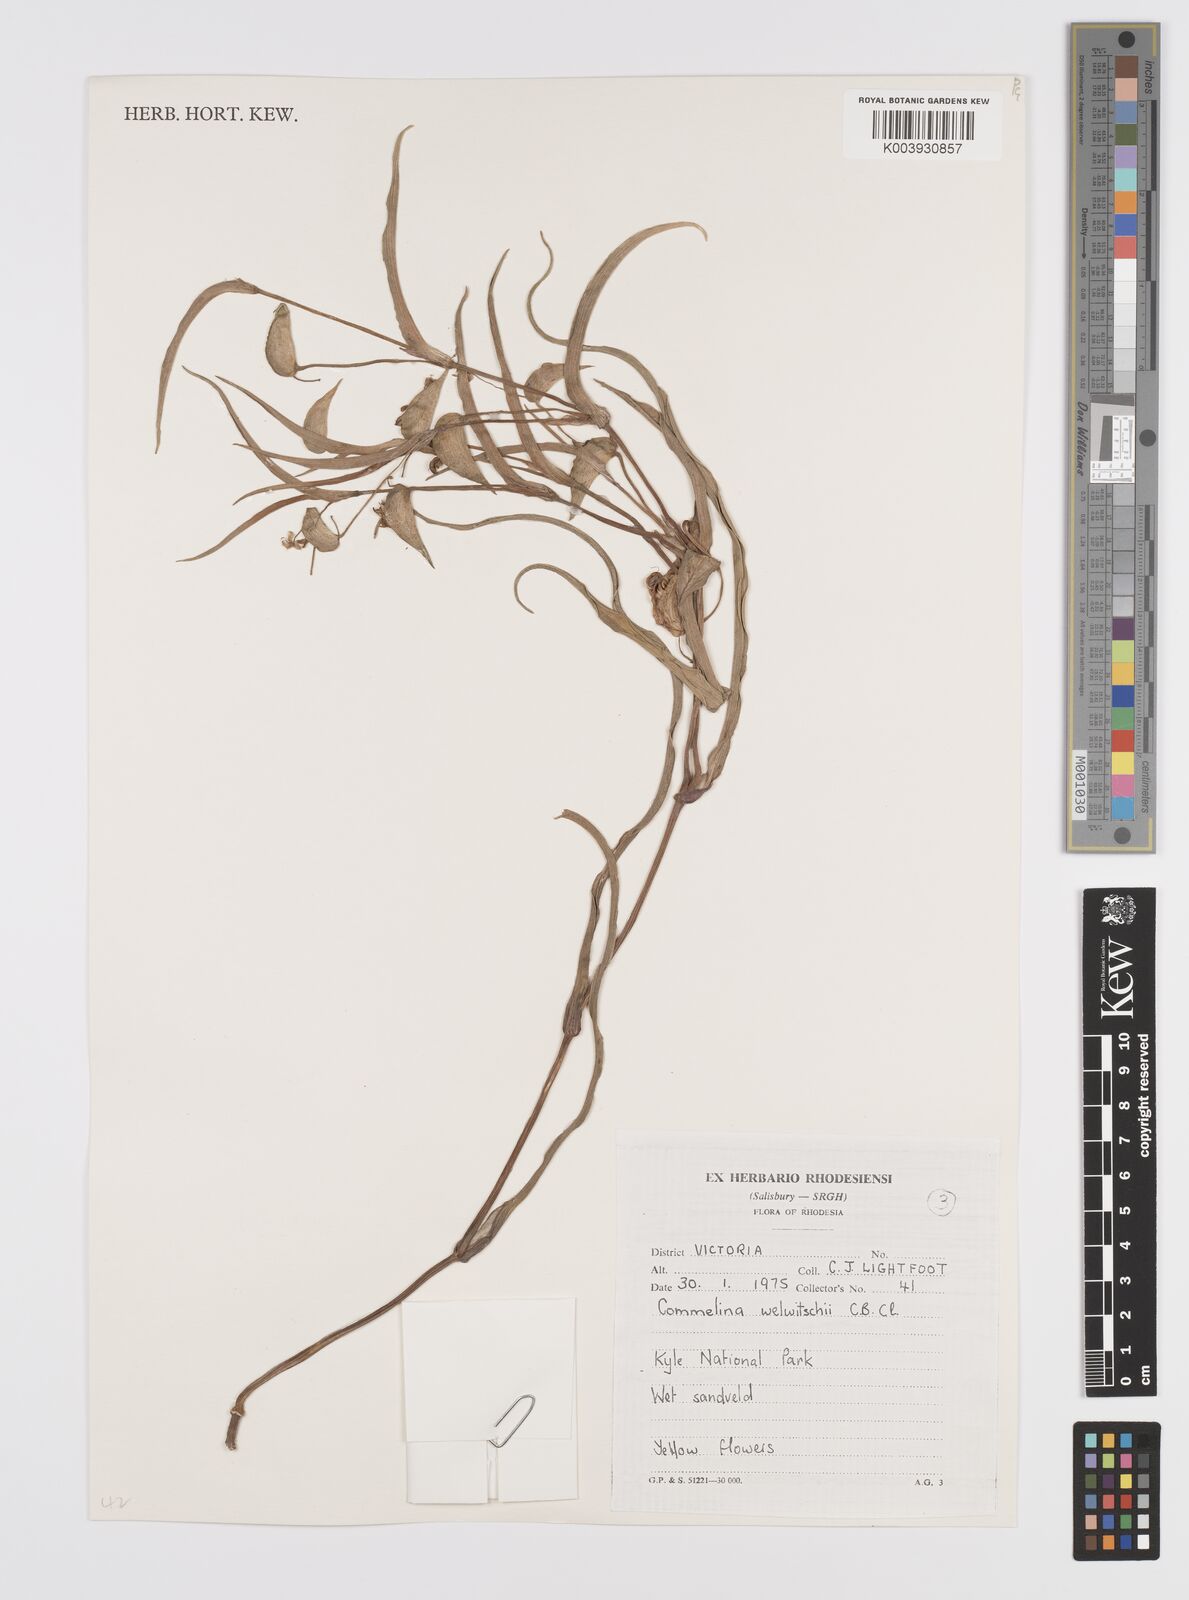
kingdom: Plantae
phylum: Tracheophyta
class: Liliopsida
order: Commelinales
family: Commelinaceae
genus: Commelina
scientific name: Commelina welwitschii
